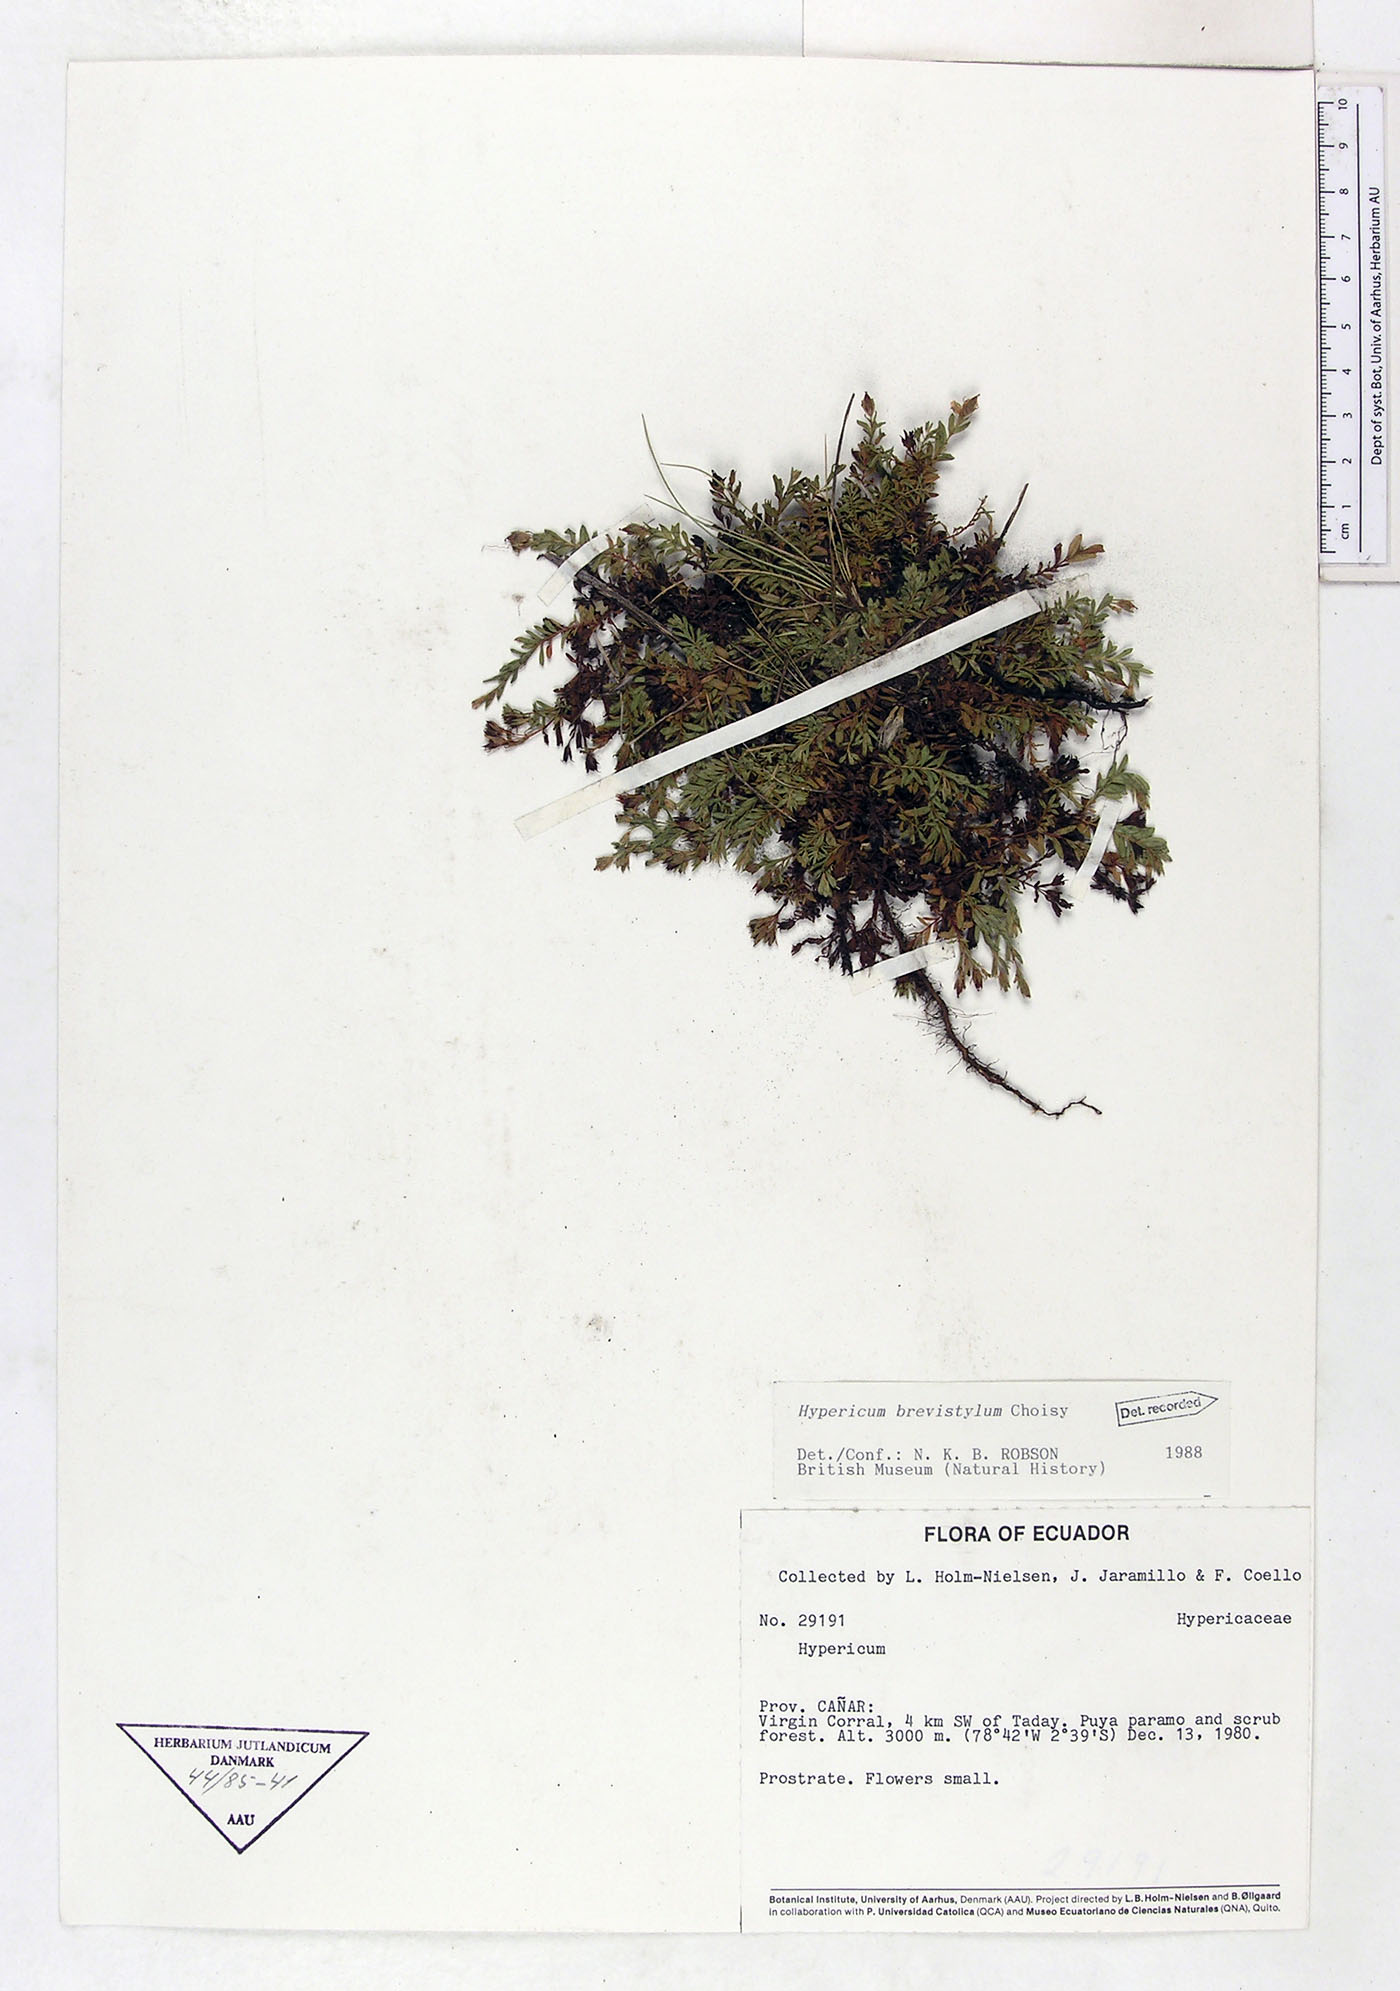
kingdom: Plantae
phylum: Tracheophyta
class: Magnoliopsida
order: Malpighiales
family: Hypericaceae
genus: Hypericum
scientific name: Hypericum brevistylum
